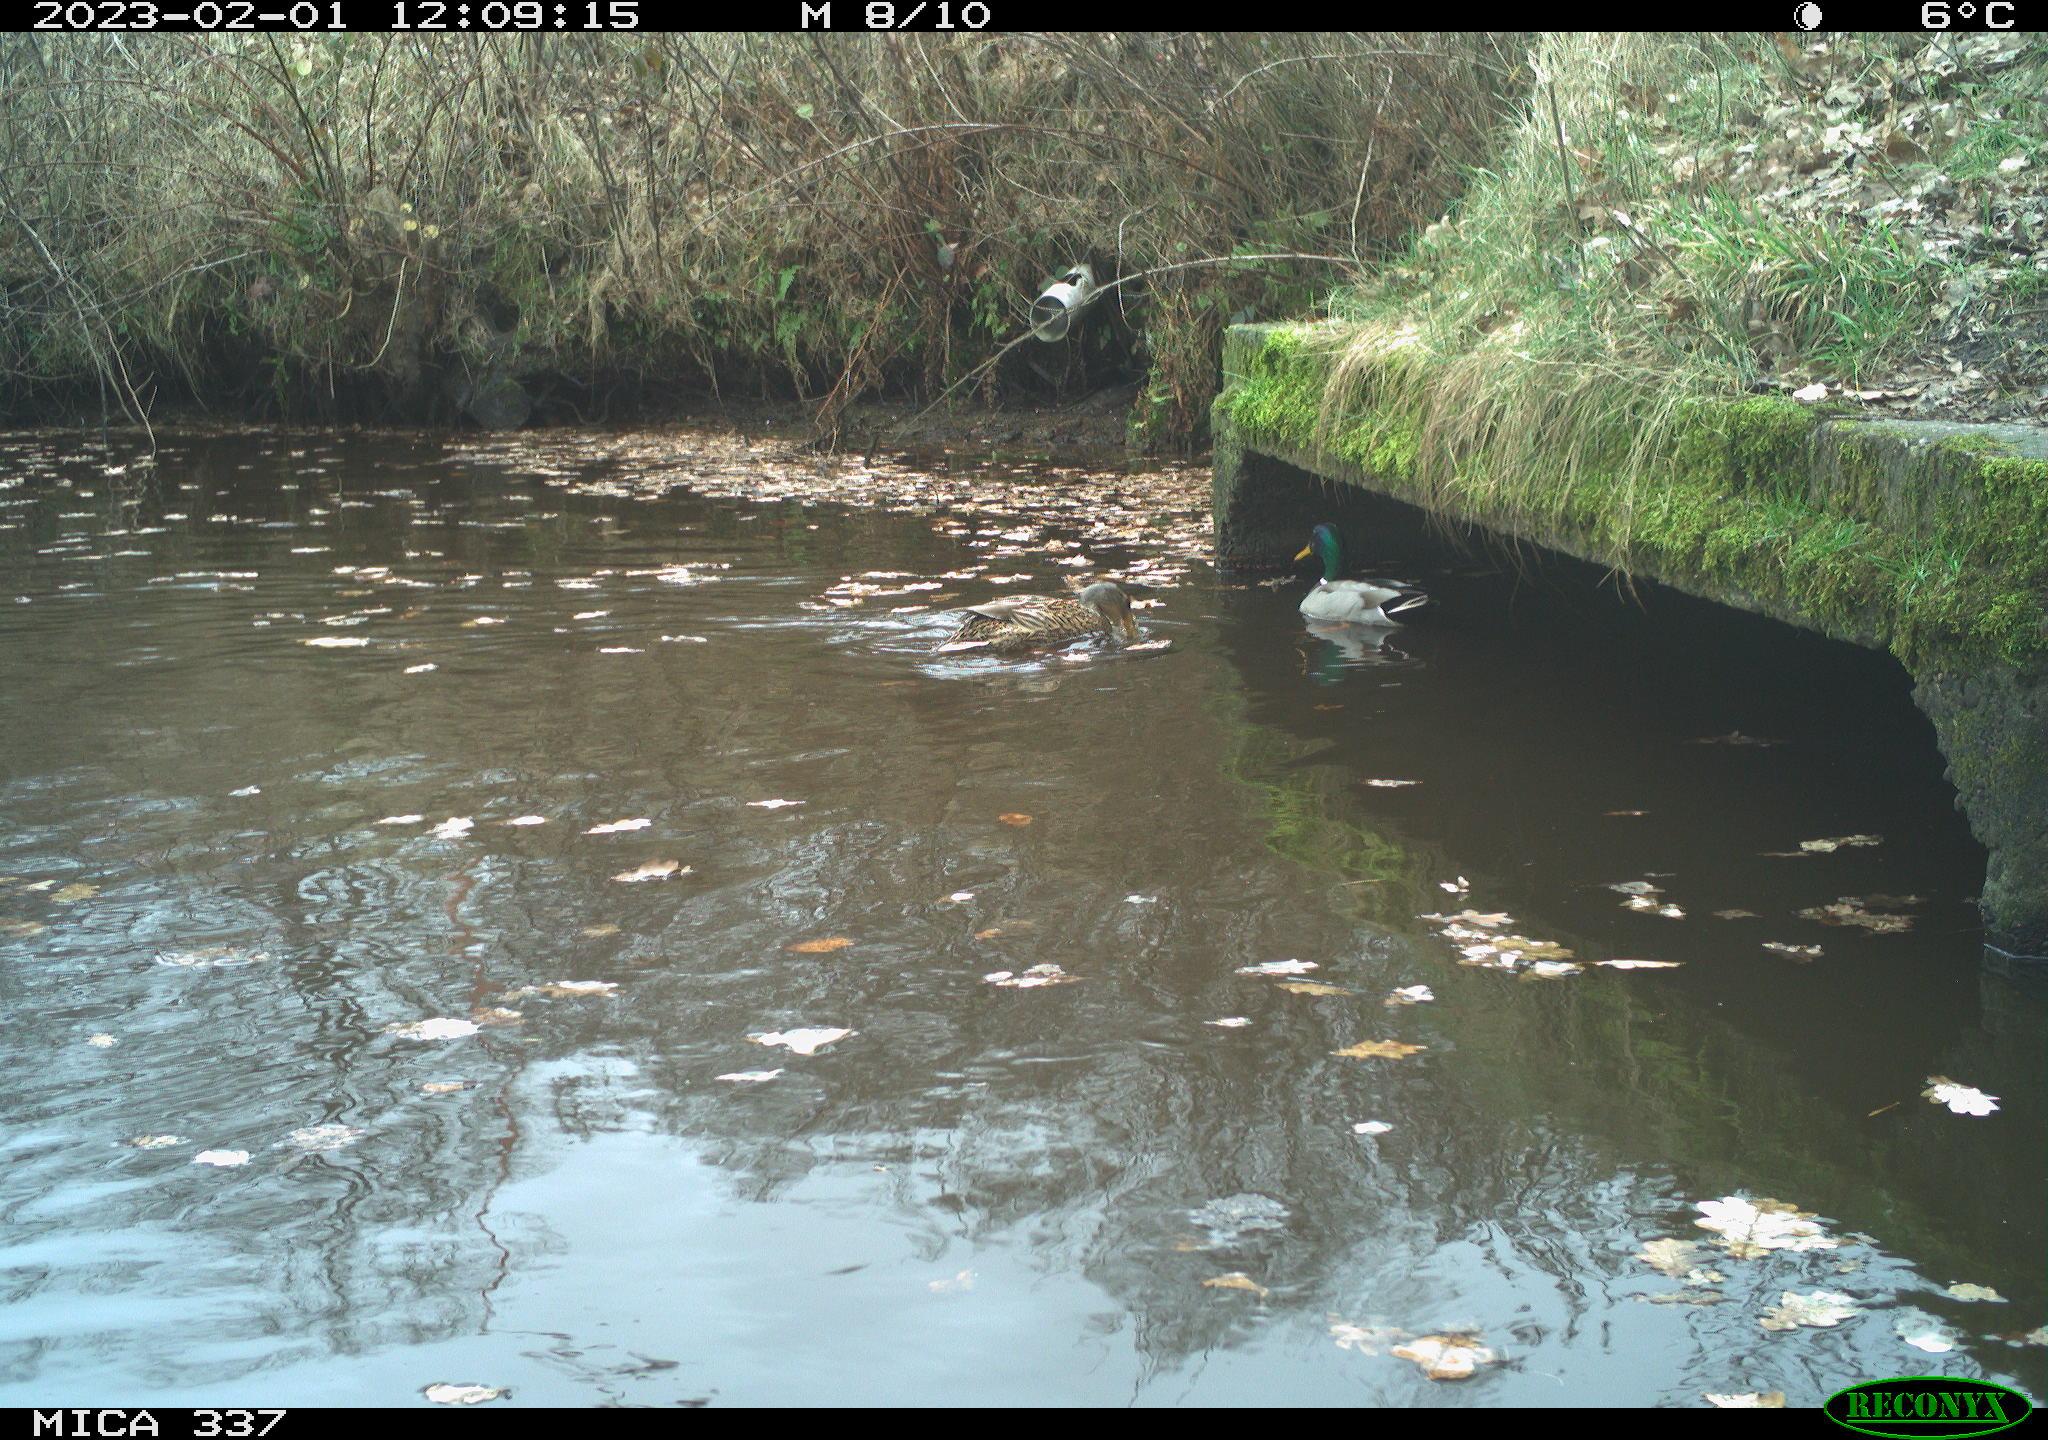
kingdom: Animalia
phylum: Chordata
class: Aves
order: Anseriformes
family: Anatidae
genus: Anas
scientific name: Anas
